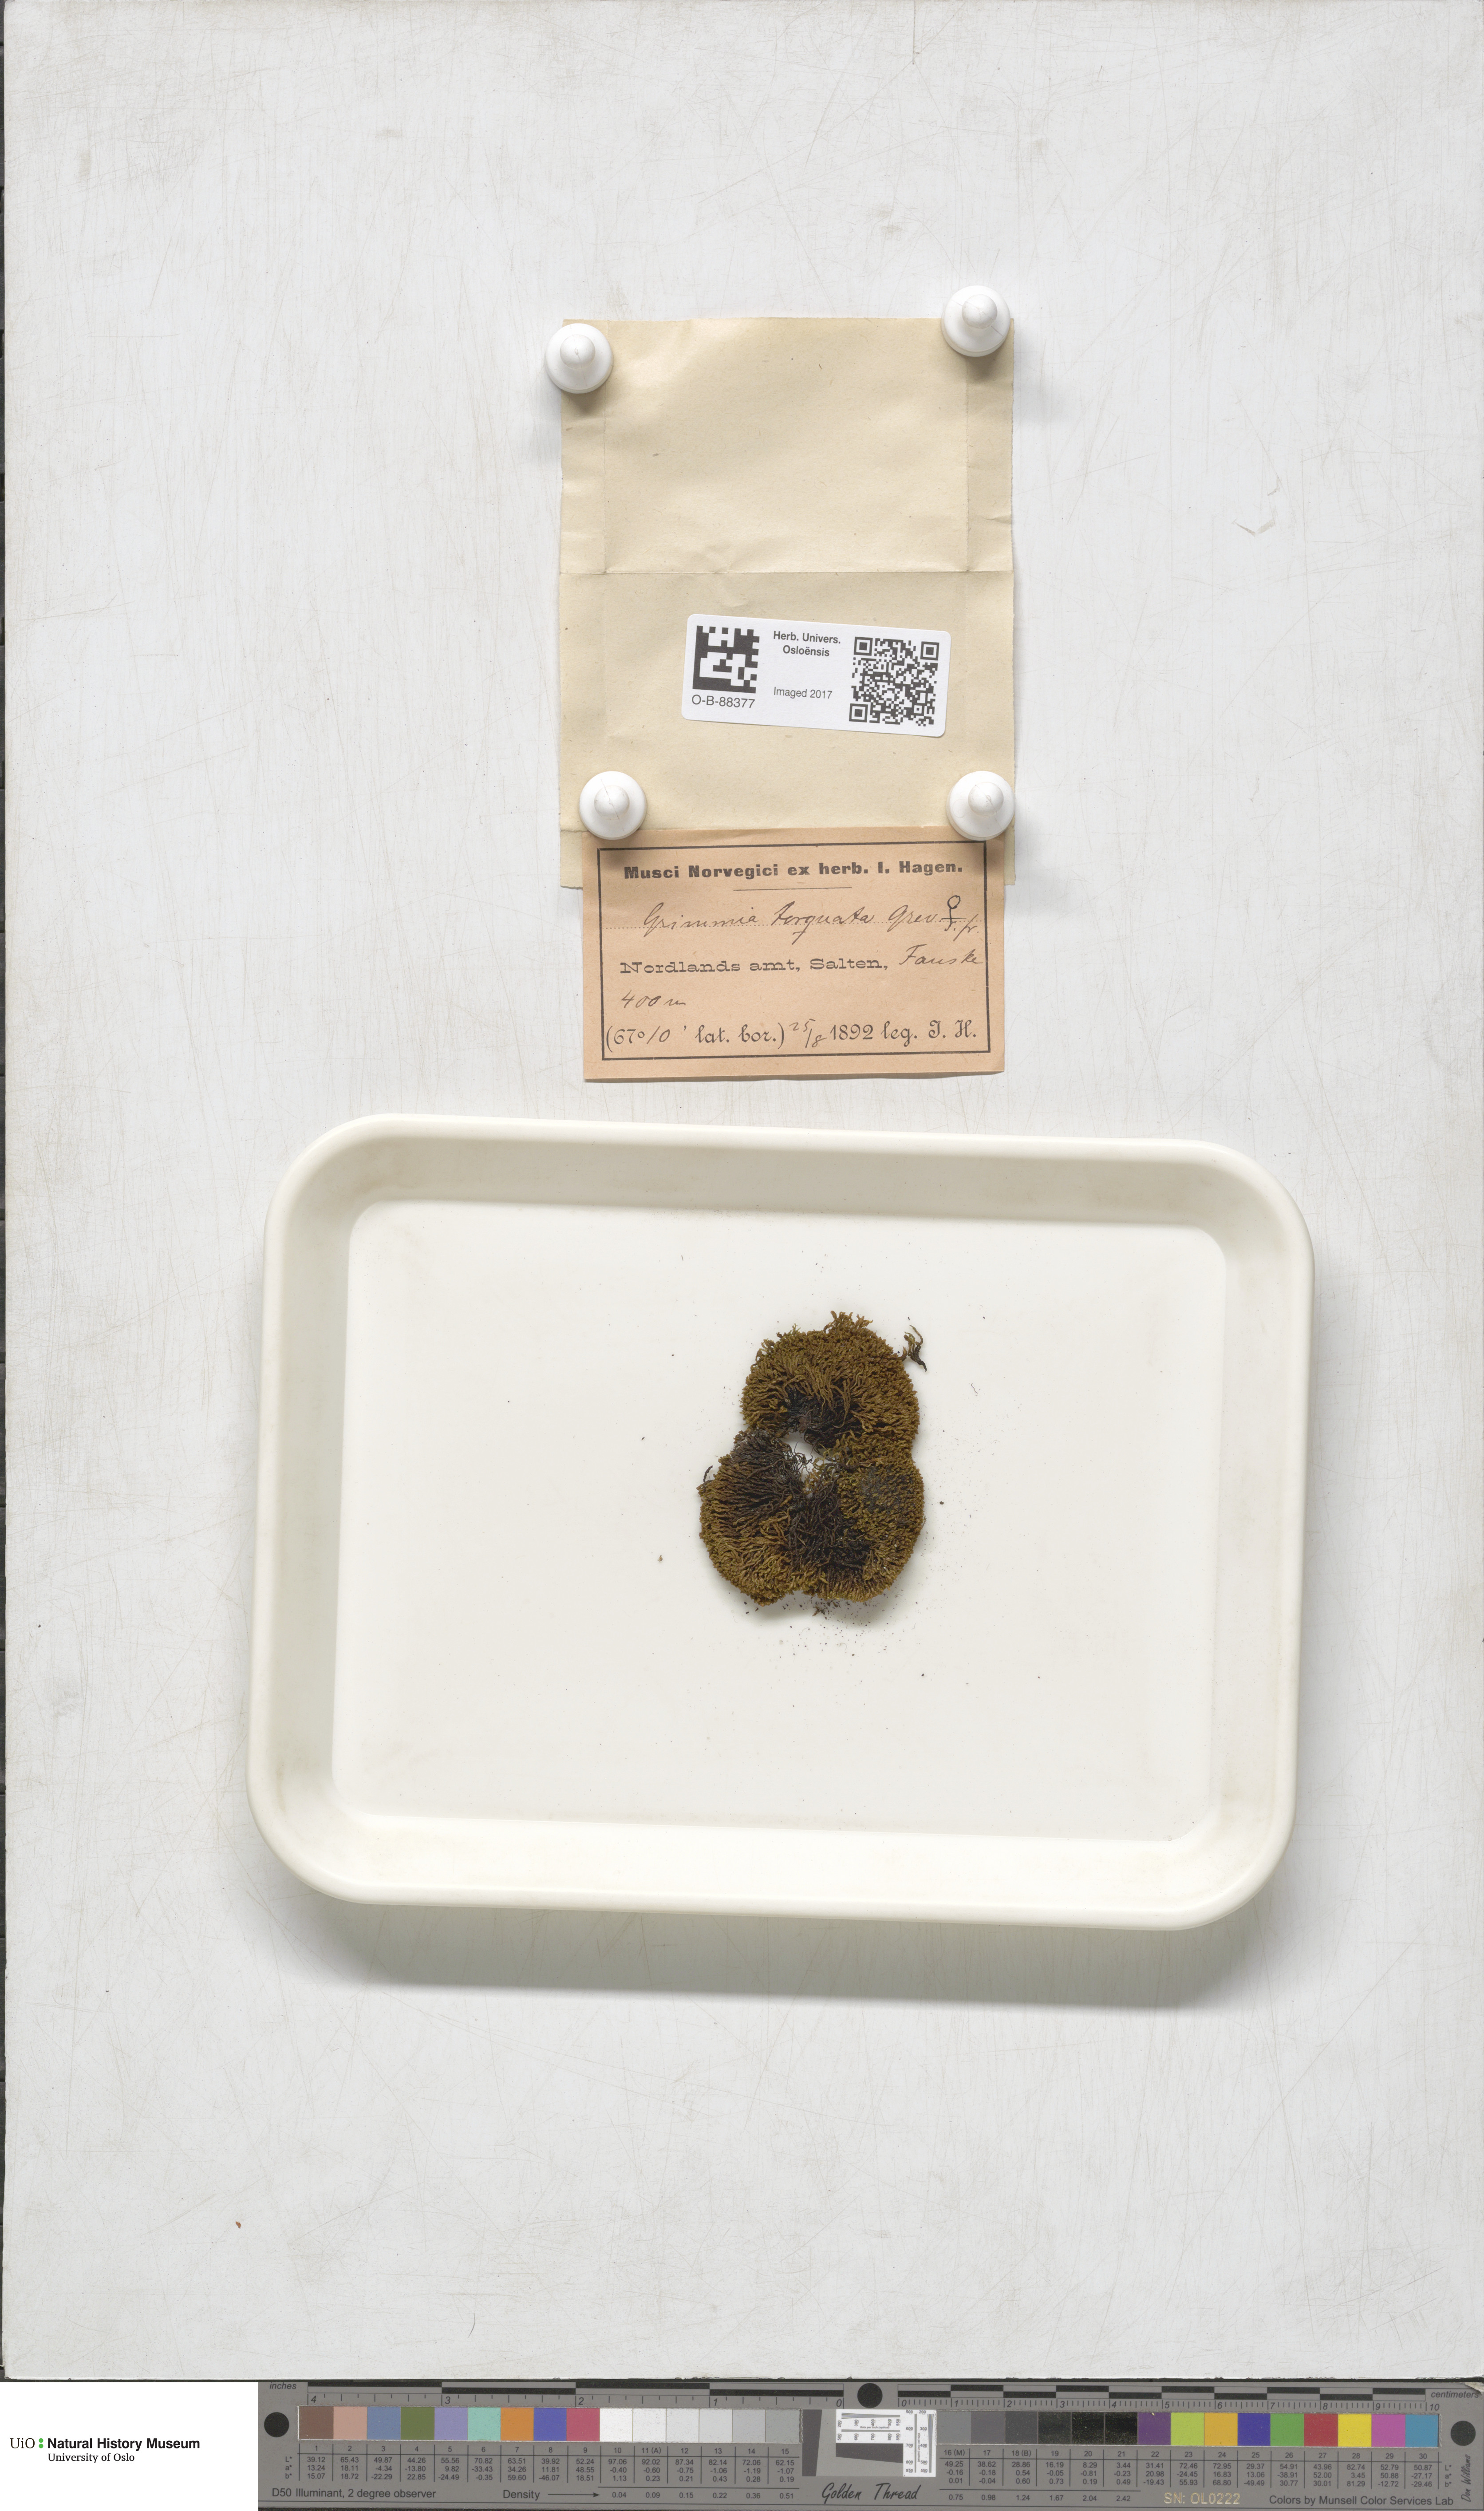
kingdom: Plantae
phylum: Bryophyta
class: Bryopsida
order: Grimmiales
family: Grimmiaceae
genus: Grimmia
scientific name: Grimmia torquata
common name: Twisted grimmia
